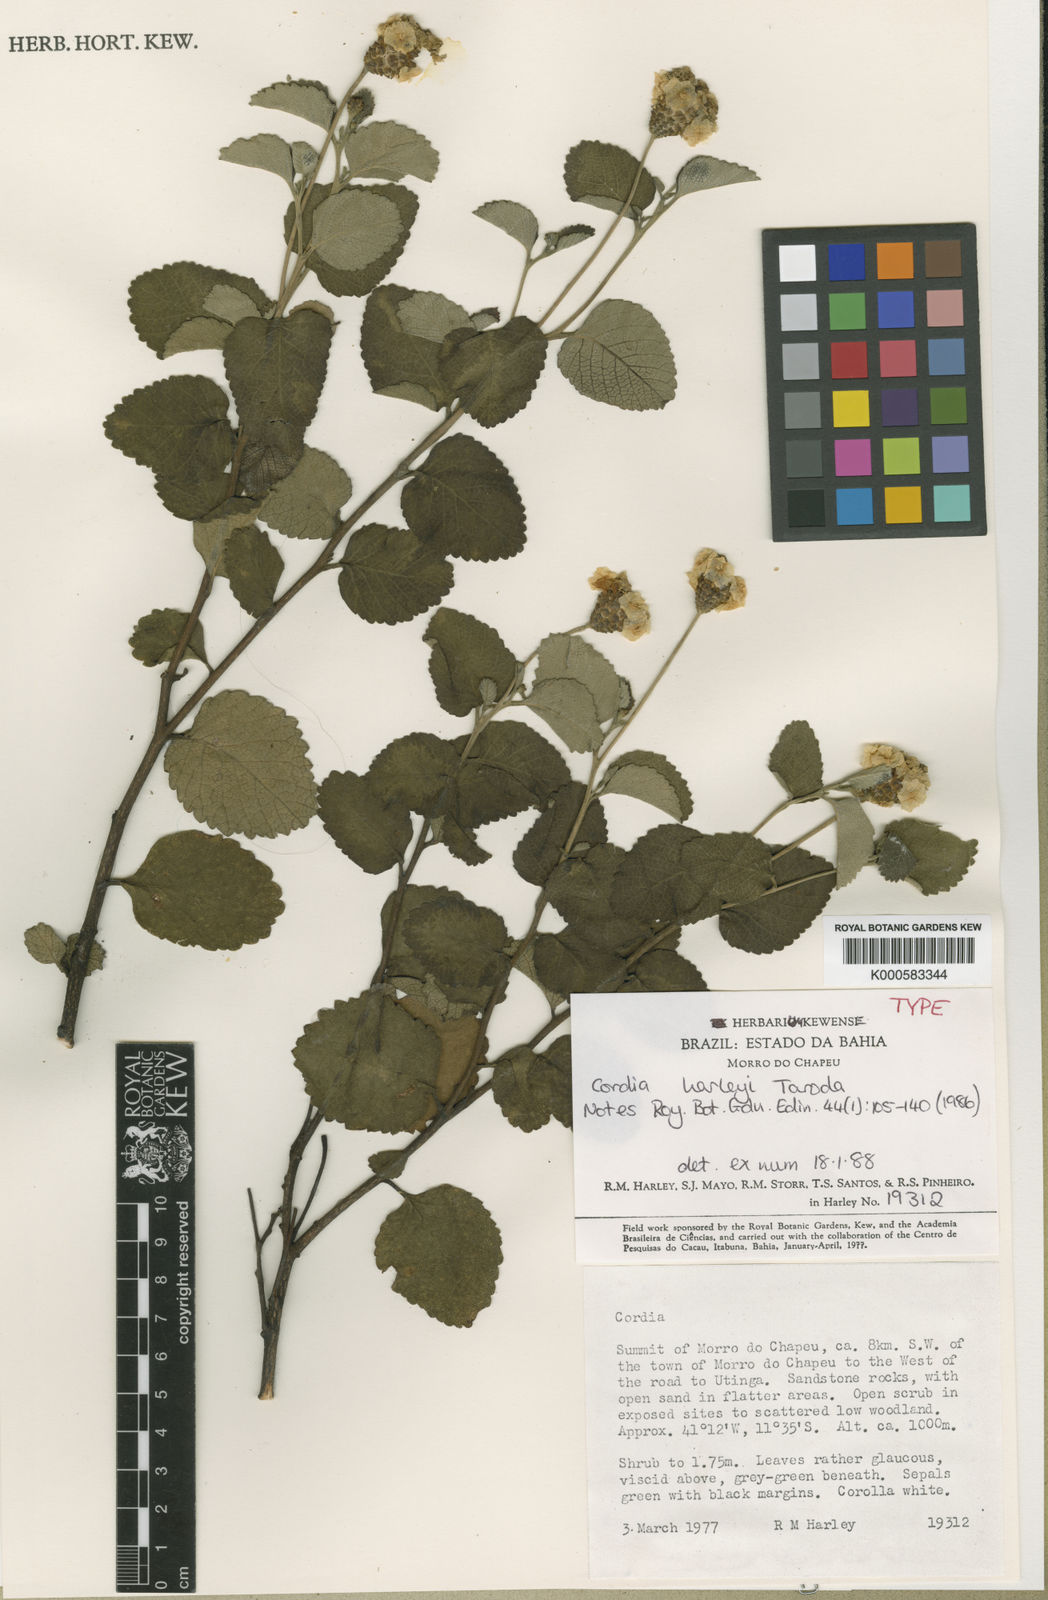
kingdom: Plantae
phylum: Tracheophyta
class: Magnoliopsida
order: Boraginales
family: Cordiaceae
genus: Varronia
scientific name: Varronia harleyi
